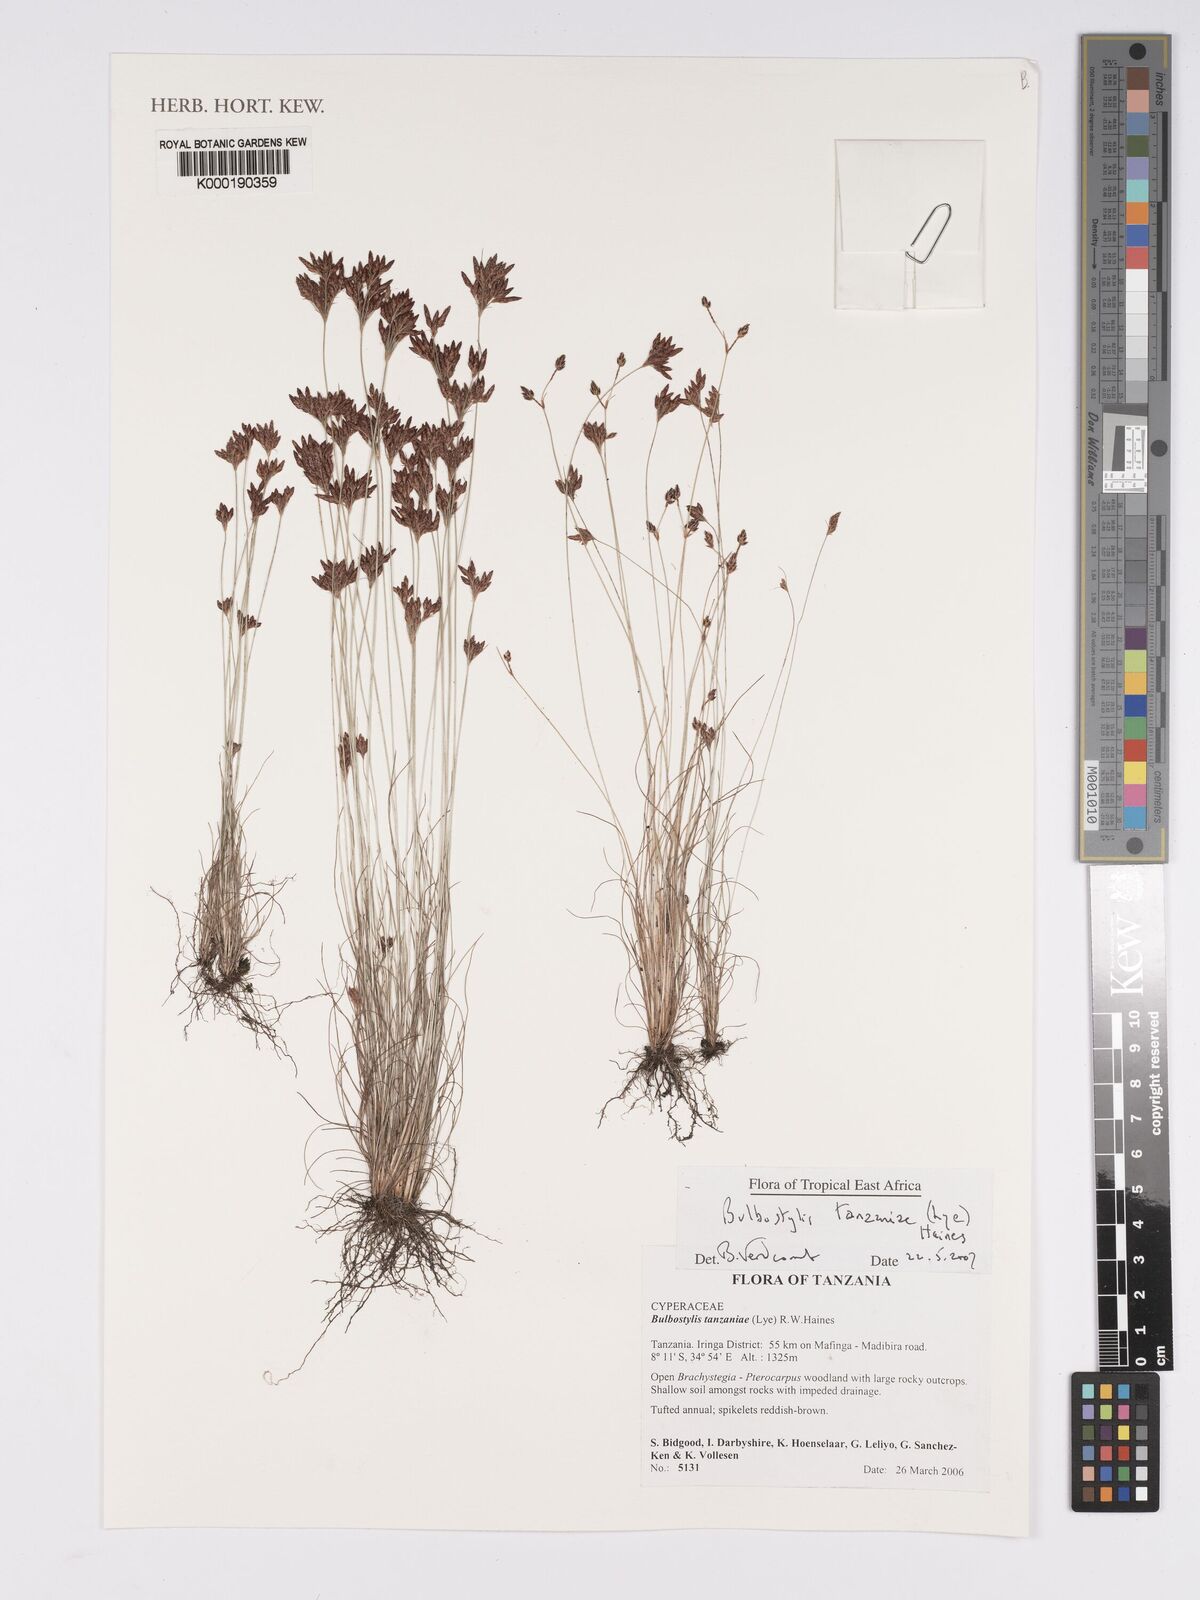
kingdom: Plantae
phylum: Tracheophyta
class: Liliopsida
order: Poales
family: Cyperaceae
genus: Bulbostylis
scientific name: Bulbostylis tanzaniae
